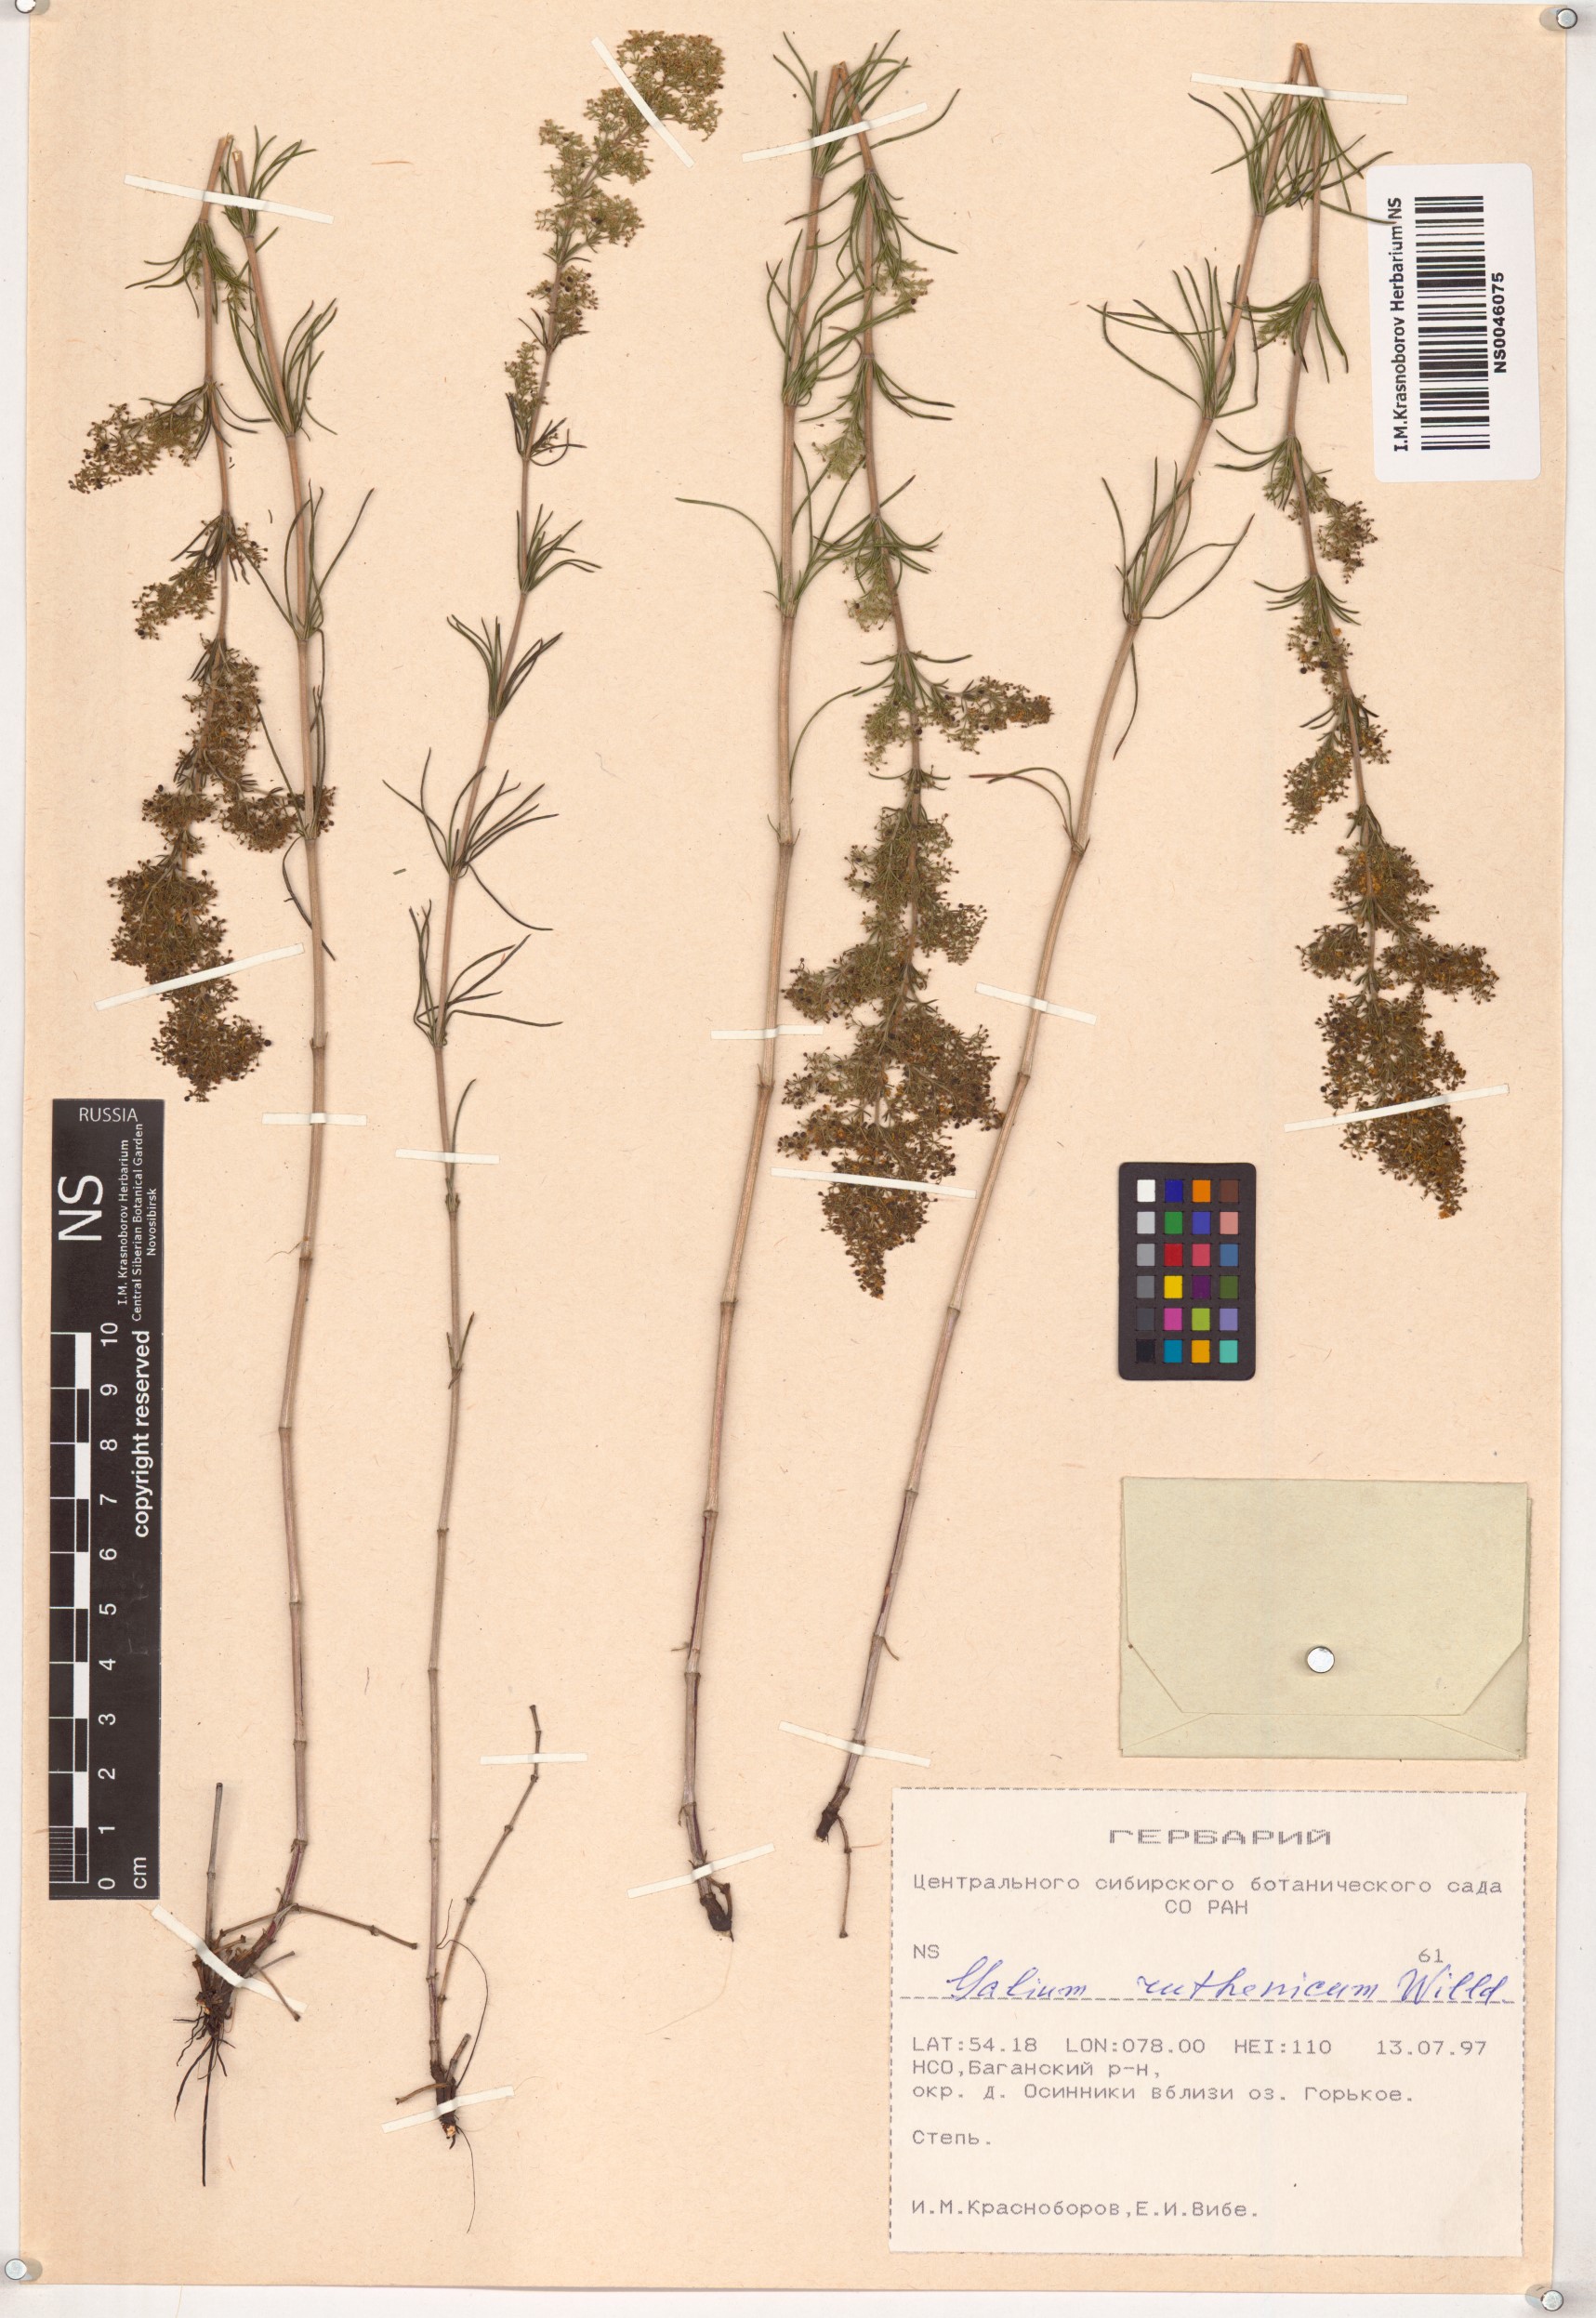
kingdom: Plantae
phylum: Tracheophyta
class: Magnoliopsida
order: Gentianales
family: Rubiaceae
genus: Galium
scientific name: Galium verum
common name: Lady's bedstraw
